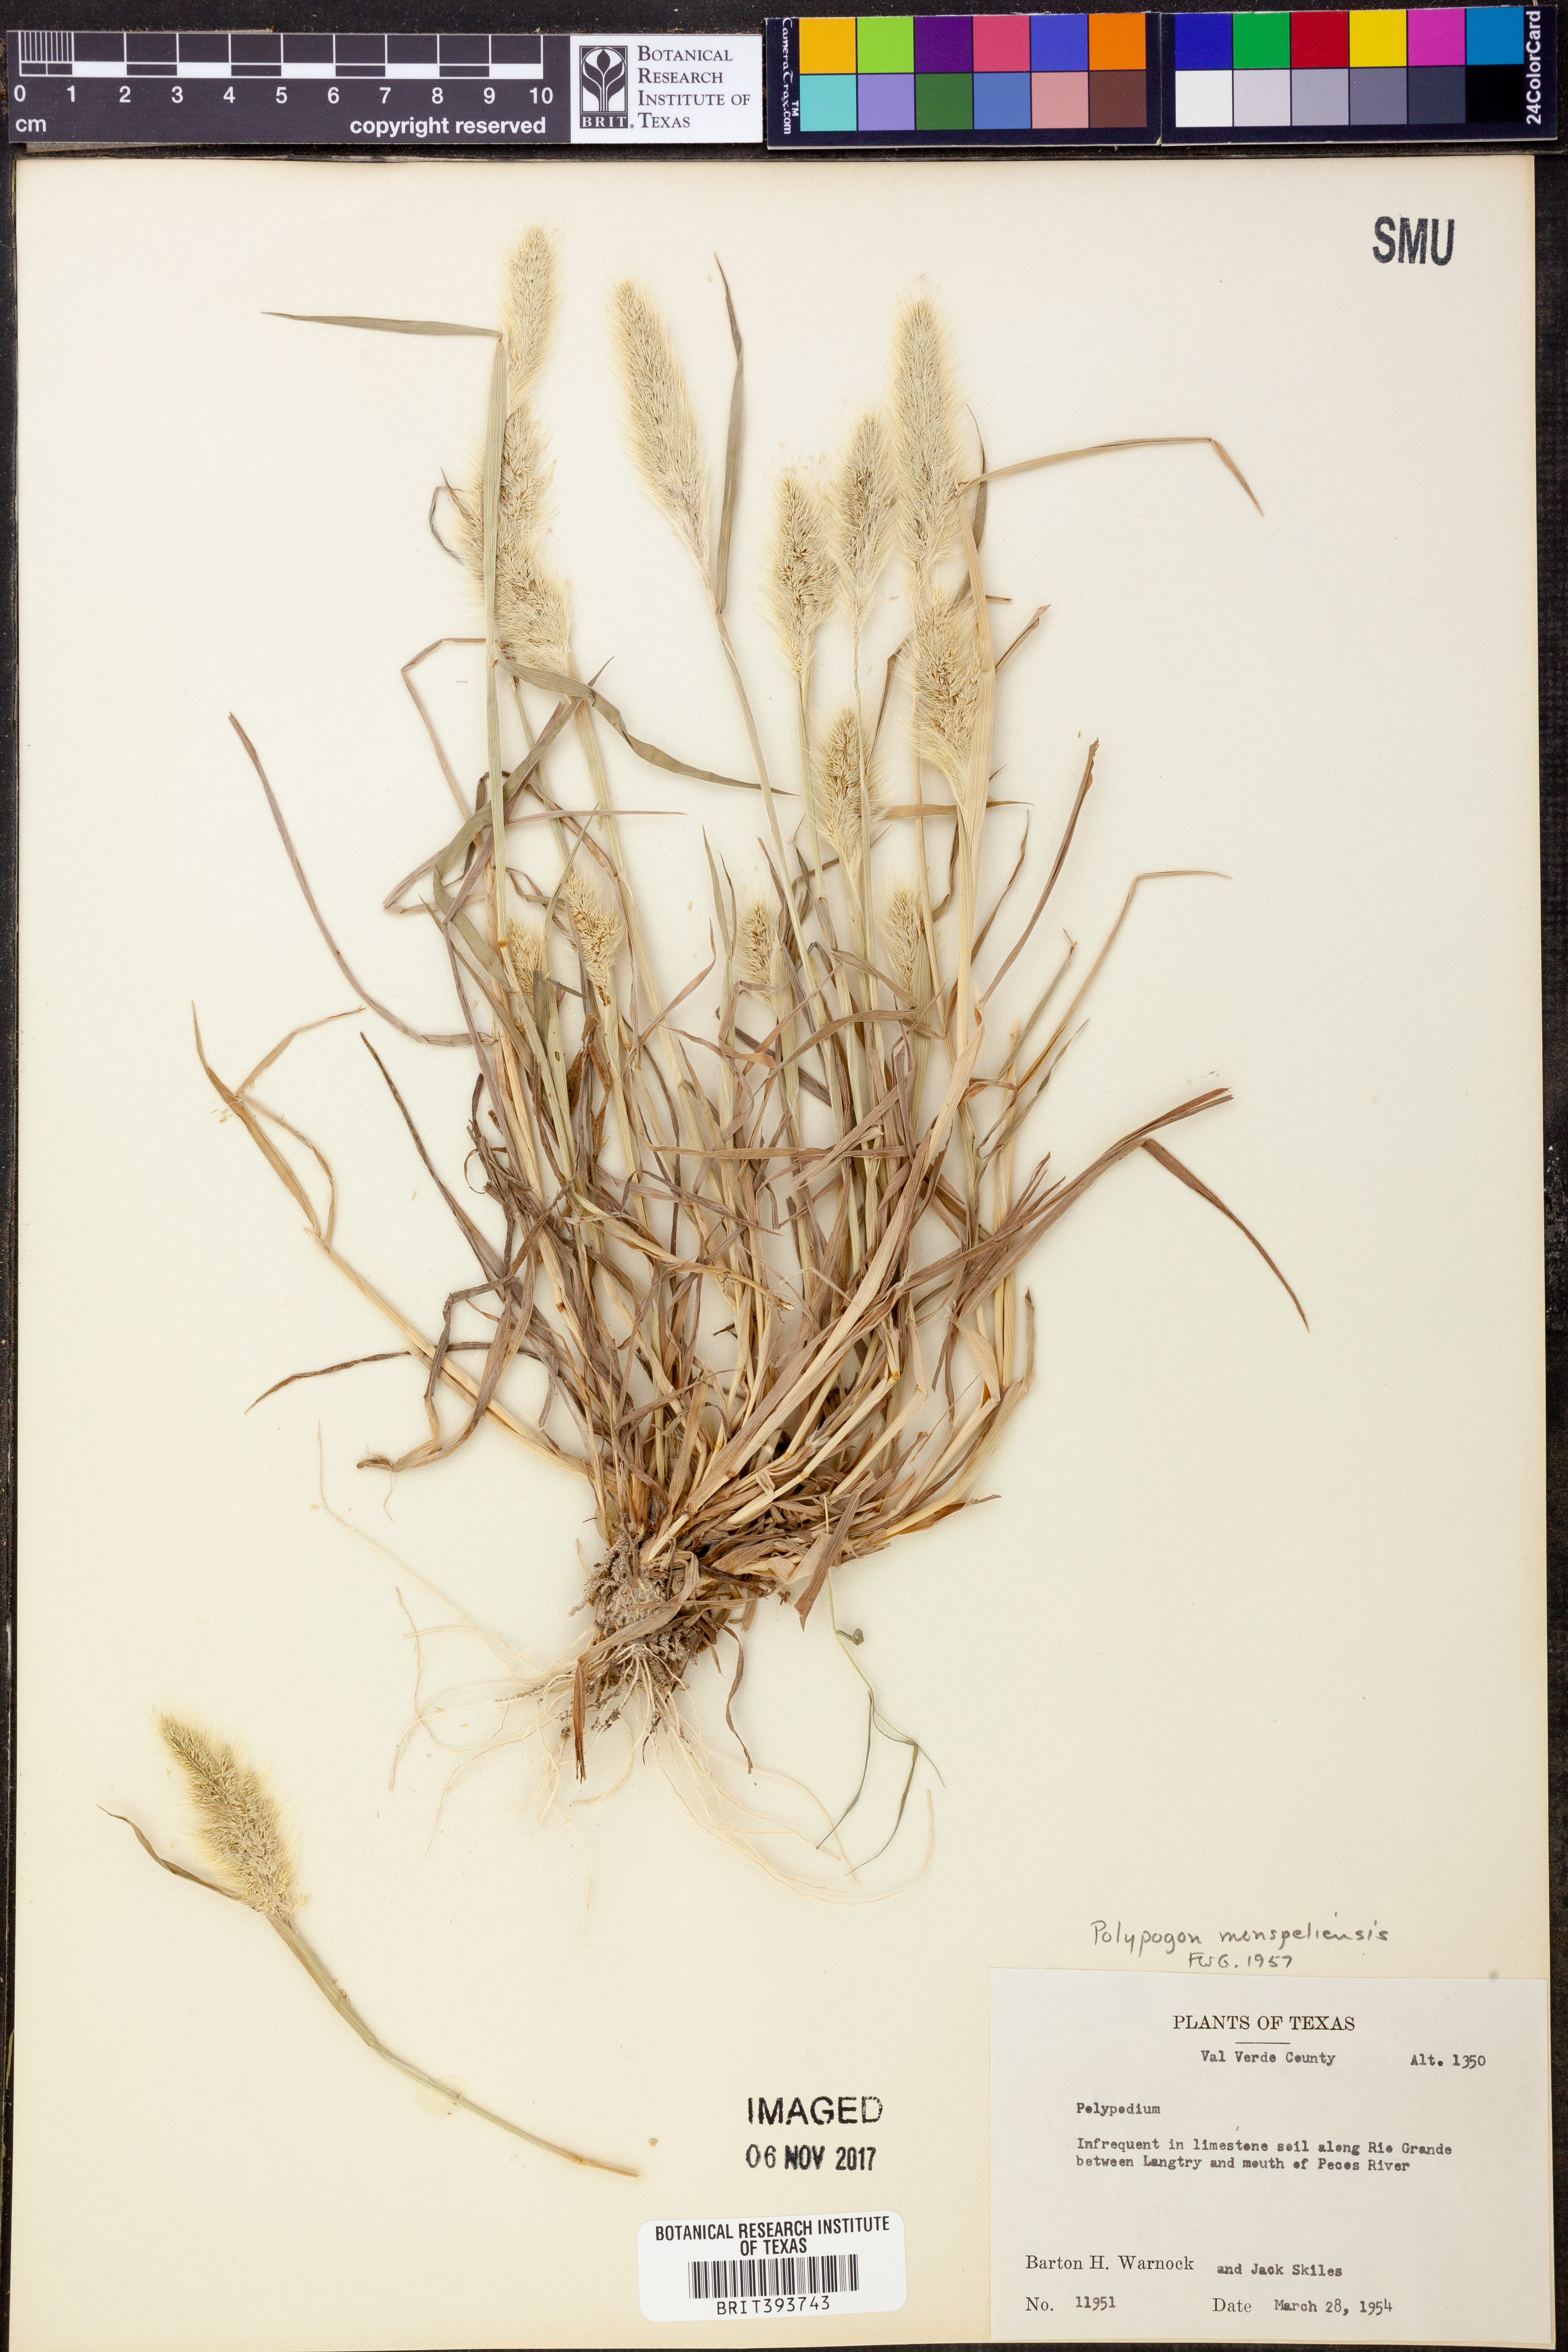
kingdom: Plantae
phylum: Tracheophyta
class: Liliopsida
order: Poales
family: Poaceae
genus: Polypogon
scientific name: Polypogon monspeliensis
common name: Annual rabbitsfoot grass
